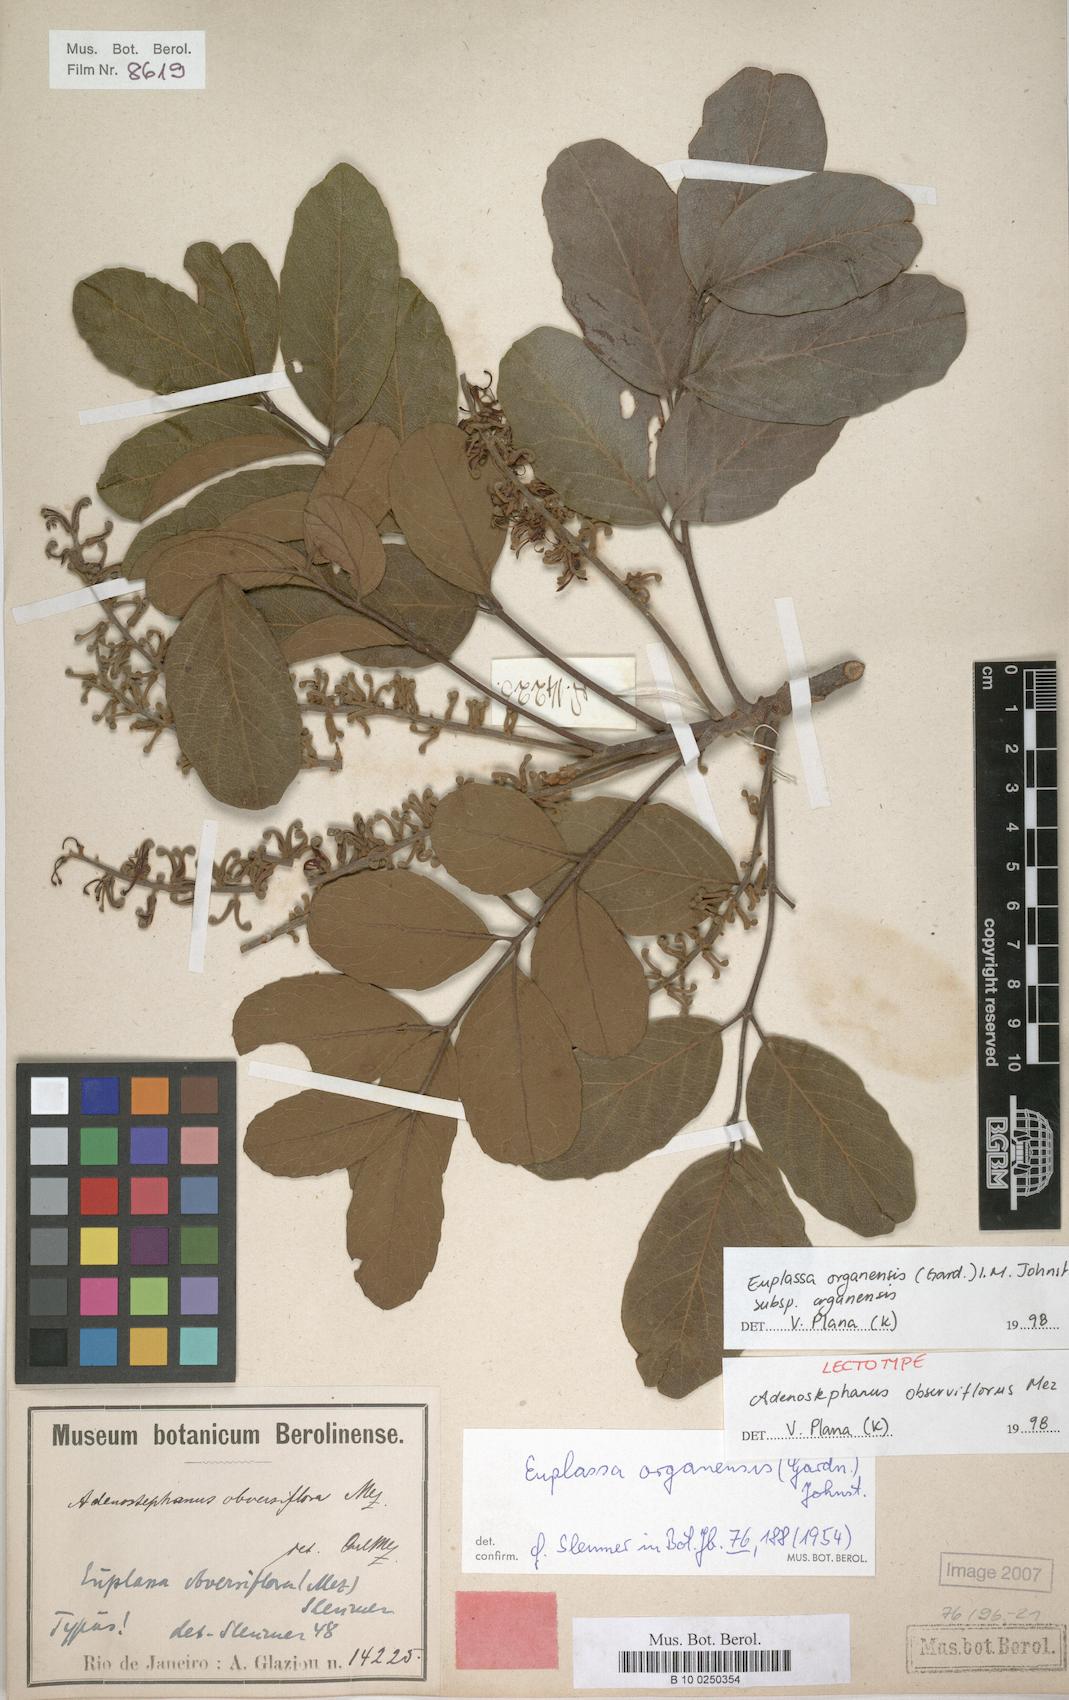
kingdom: Plantae
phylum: Tracheophyta
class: Magnoliopsida
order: Proteales
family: Proteaceae
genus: Euplassa
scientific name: Euplassa organensis
